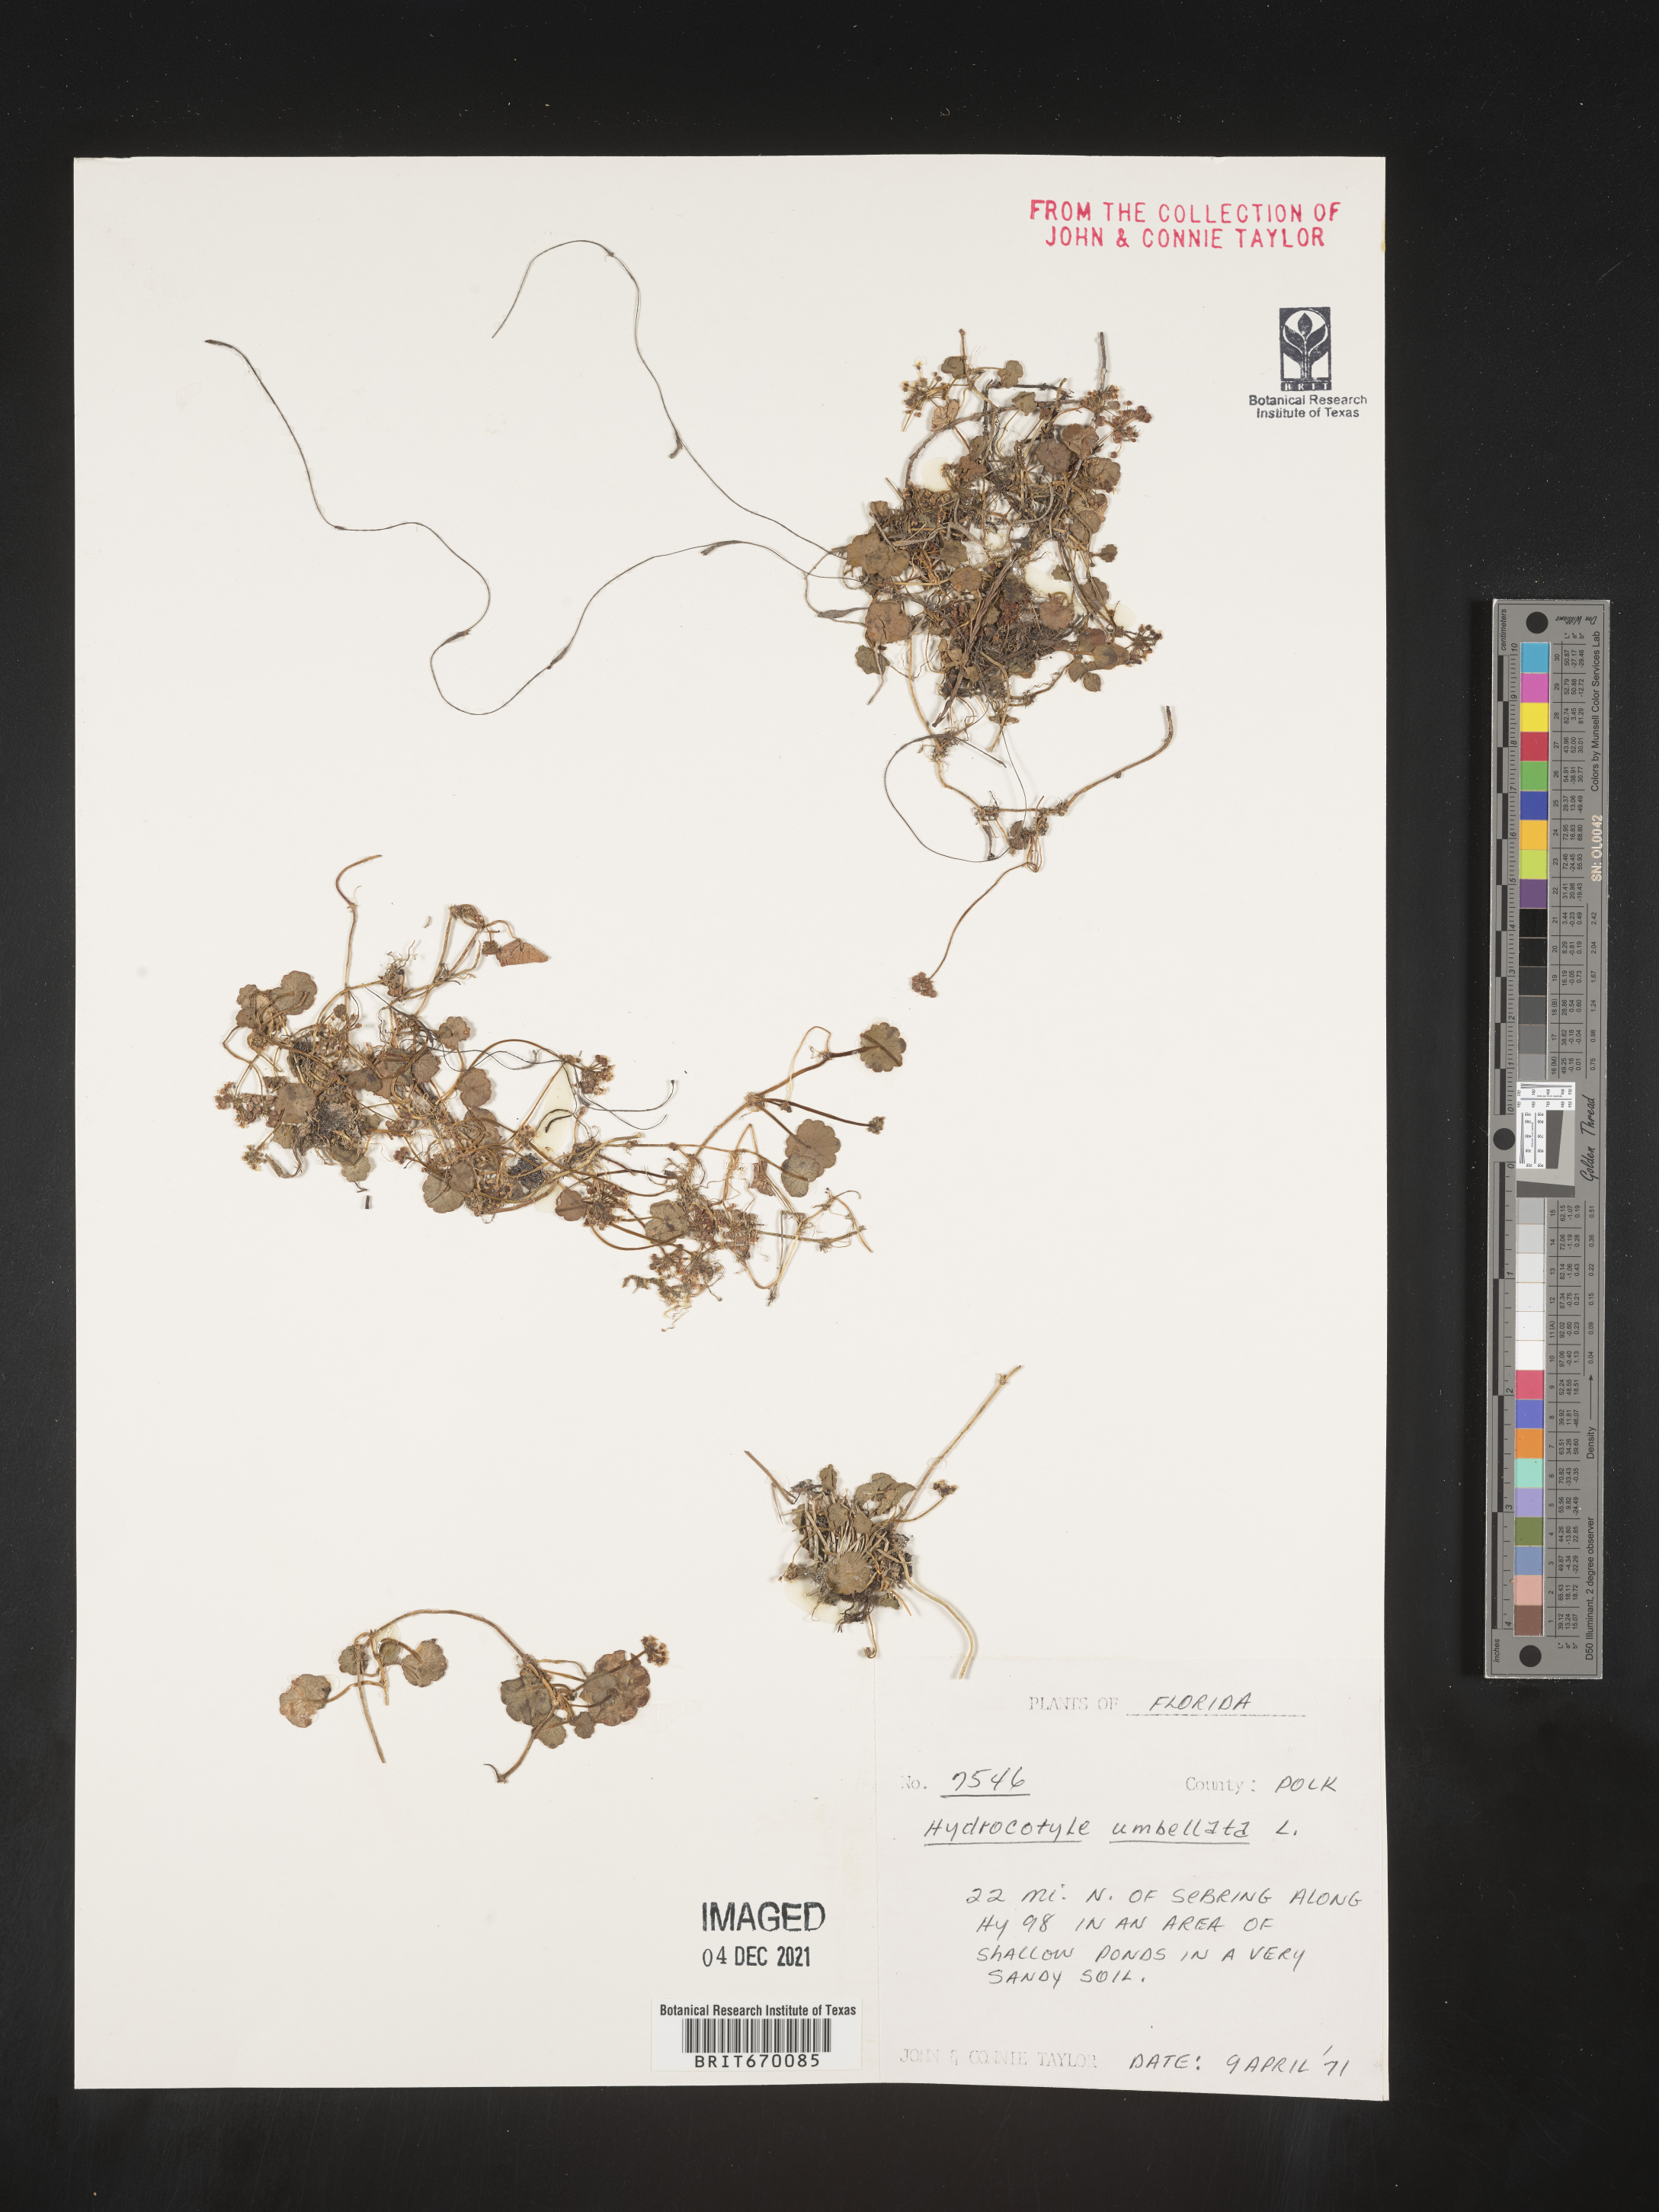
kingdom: Plantae
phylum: Tracheophyta
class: Magnoliopsida
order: Apiales
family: Araliaceae
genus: Hydrocotyle
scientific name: Hydrocotyle umbellata
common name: Water pennywort
